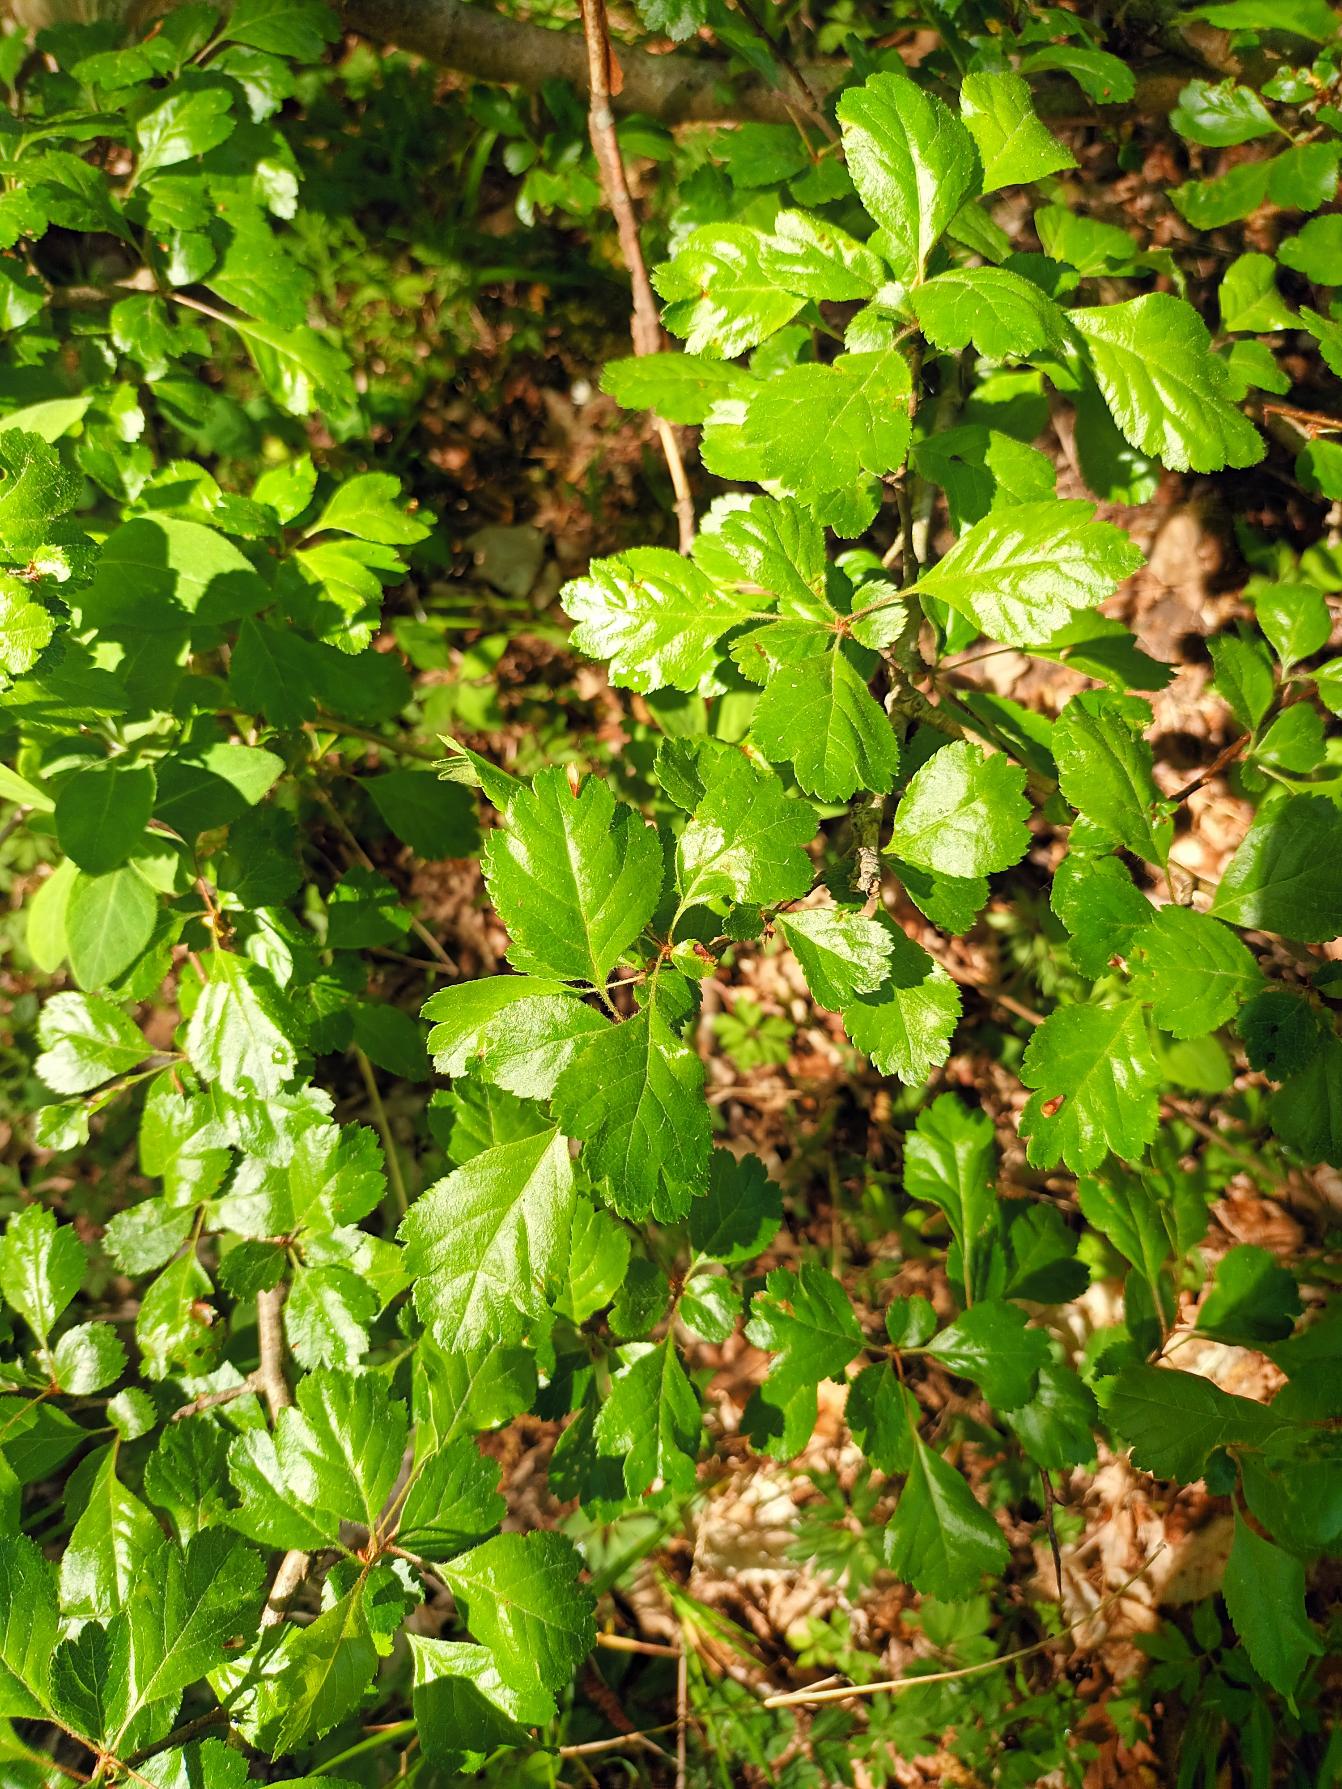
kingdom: Plantae
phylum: Tracheophyta
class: Magnoliopsida
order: Rosales
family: Rosaceae
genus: Crataegus
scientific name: Crataegus laevigata
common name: Almindelig hvidtjørn
